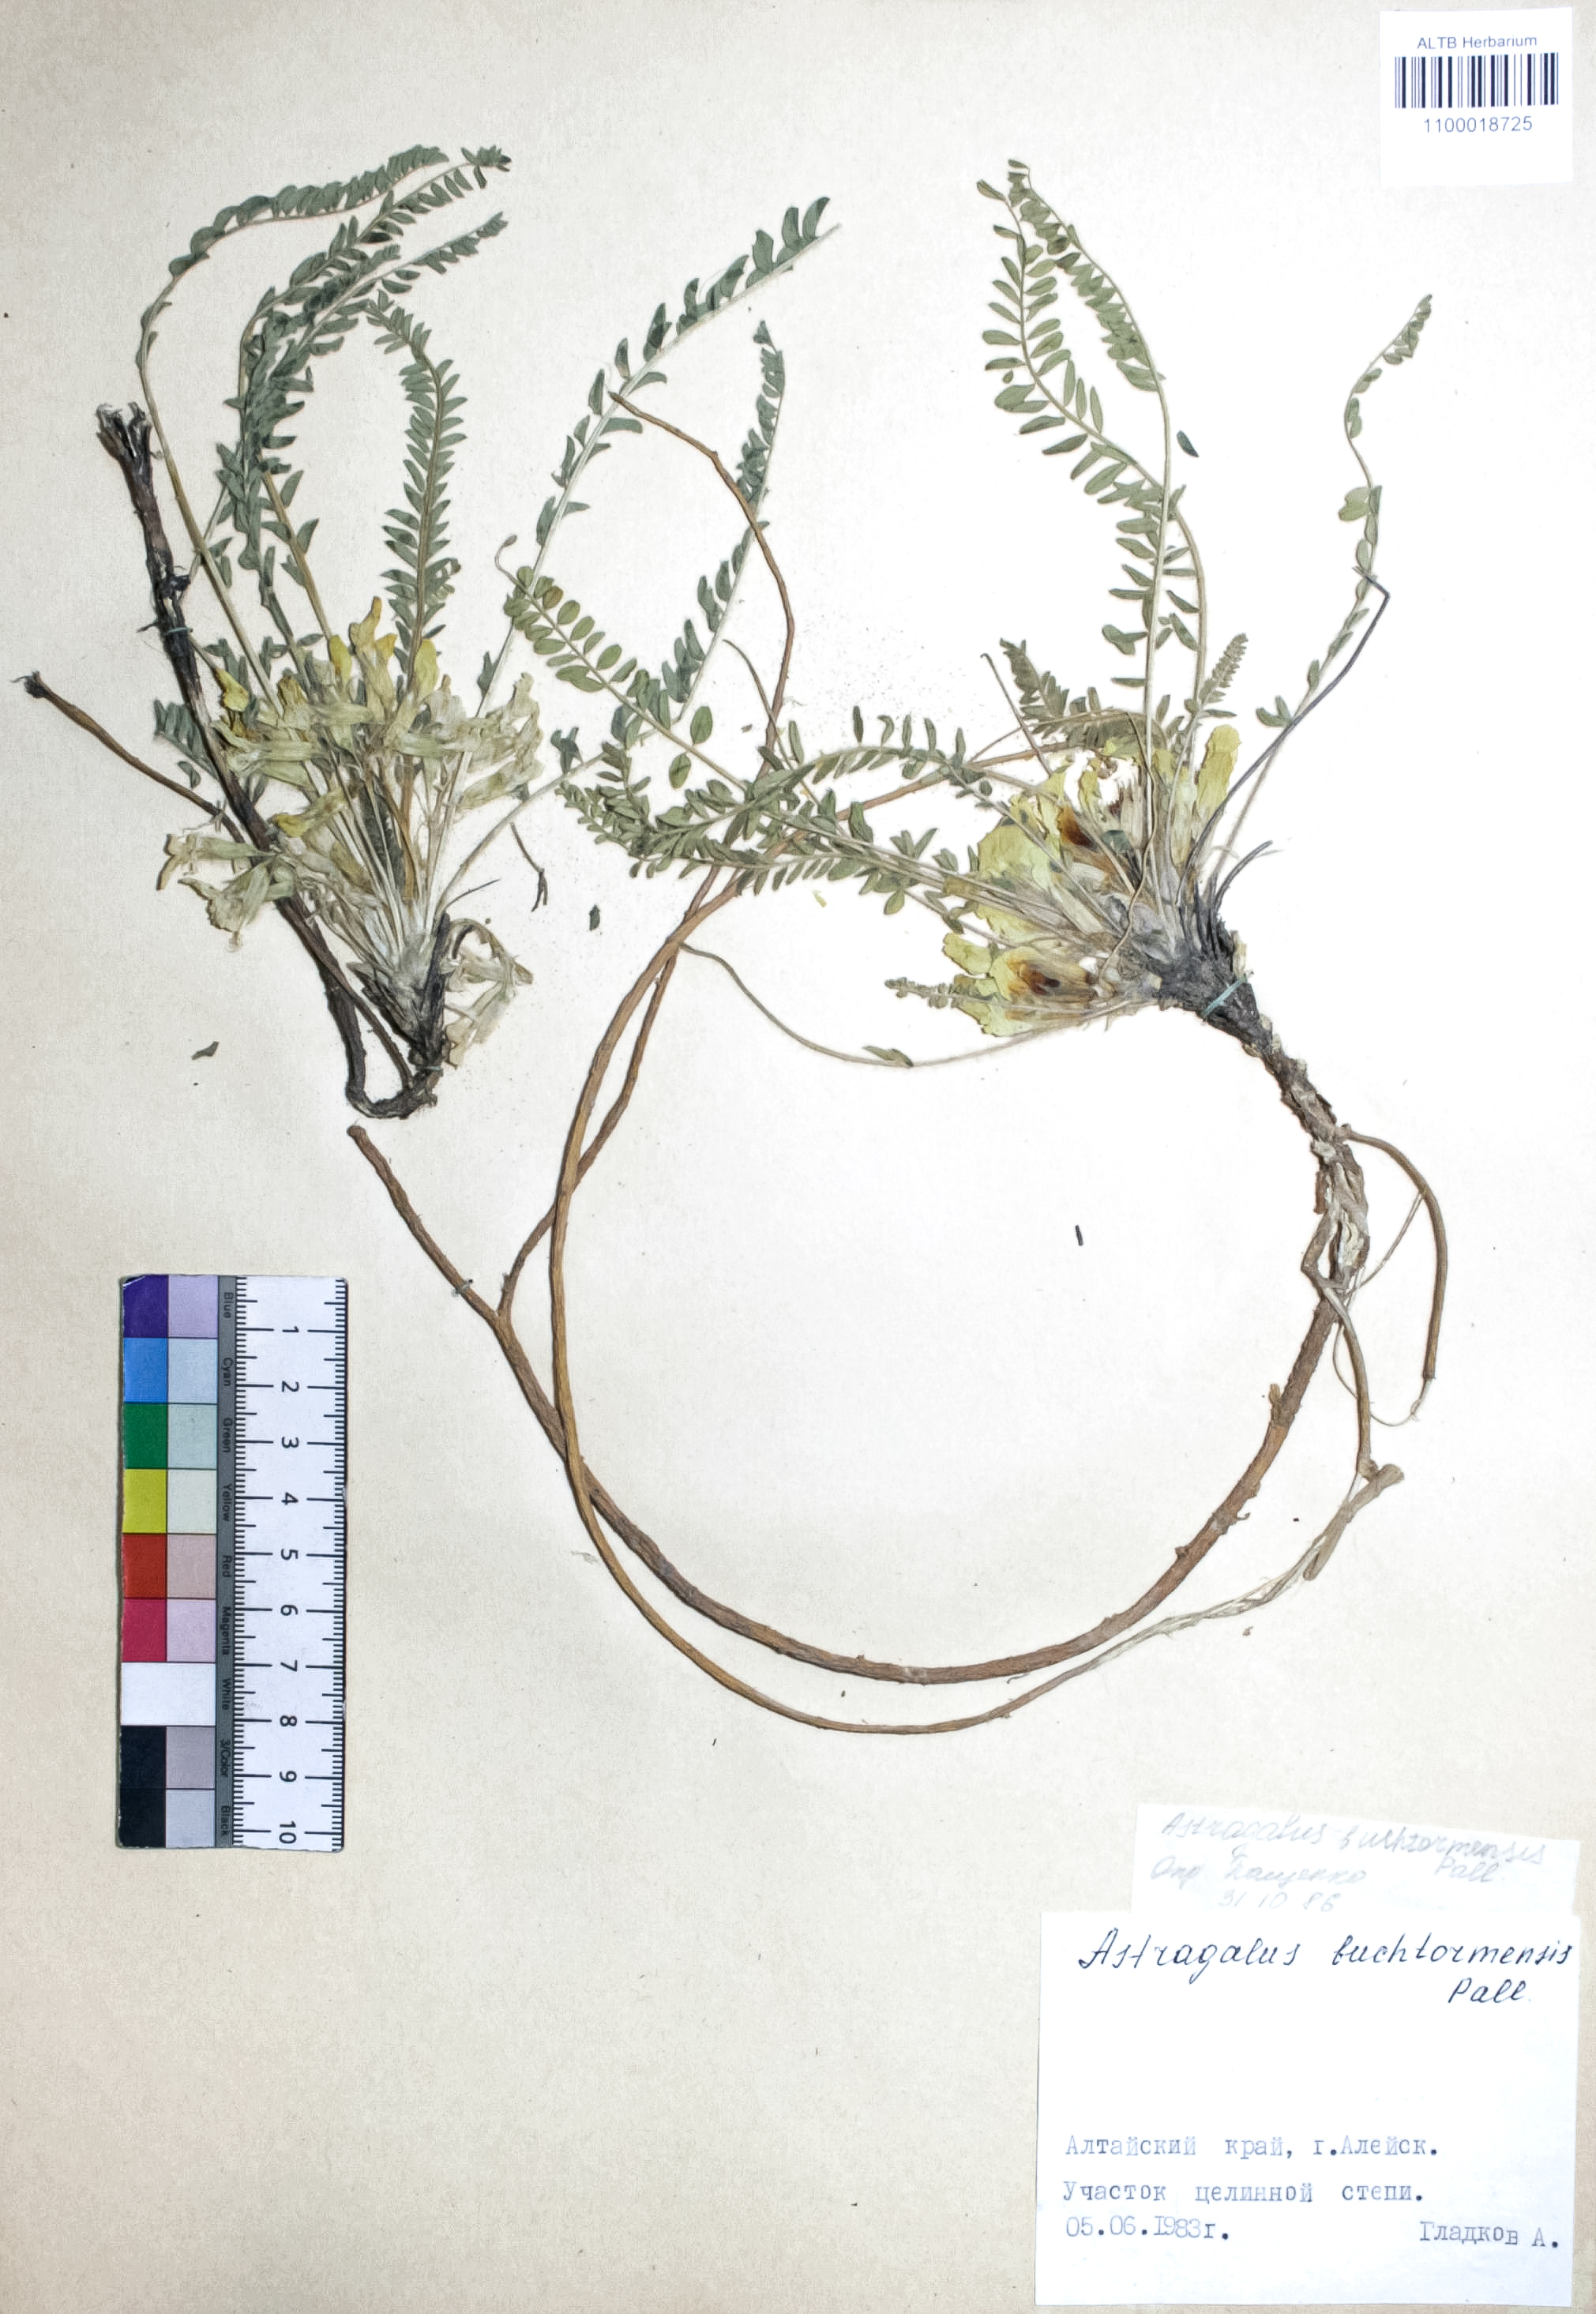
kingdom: Plantae
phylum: Tracheophyta
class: Magnoliopsida
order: Fabales
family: Fabaceae
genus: Astragalus
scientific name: Astragalus buchtormensis
